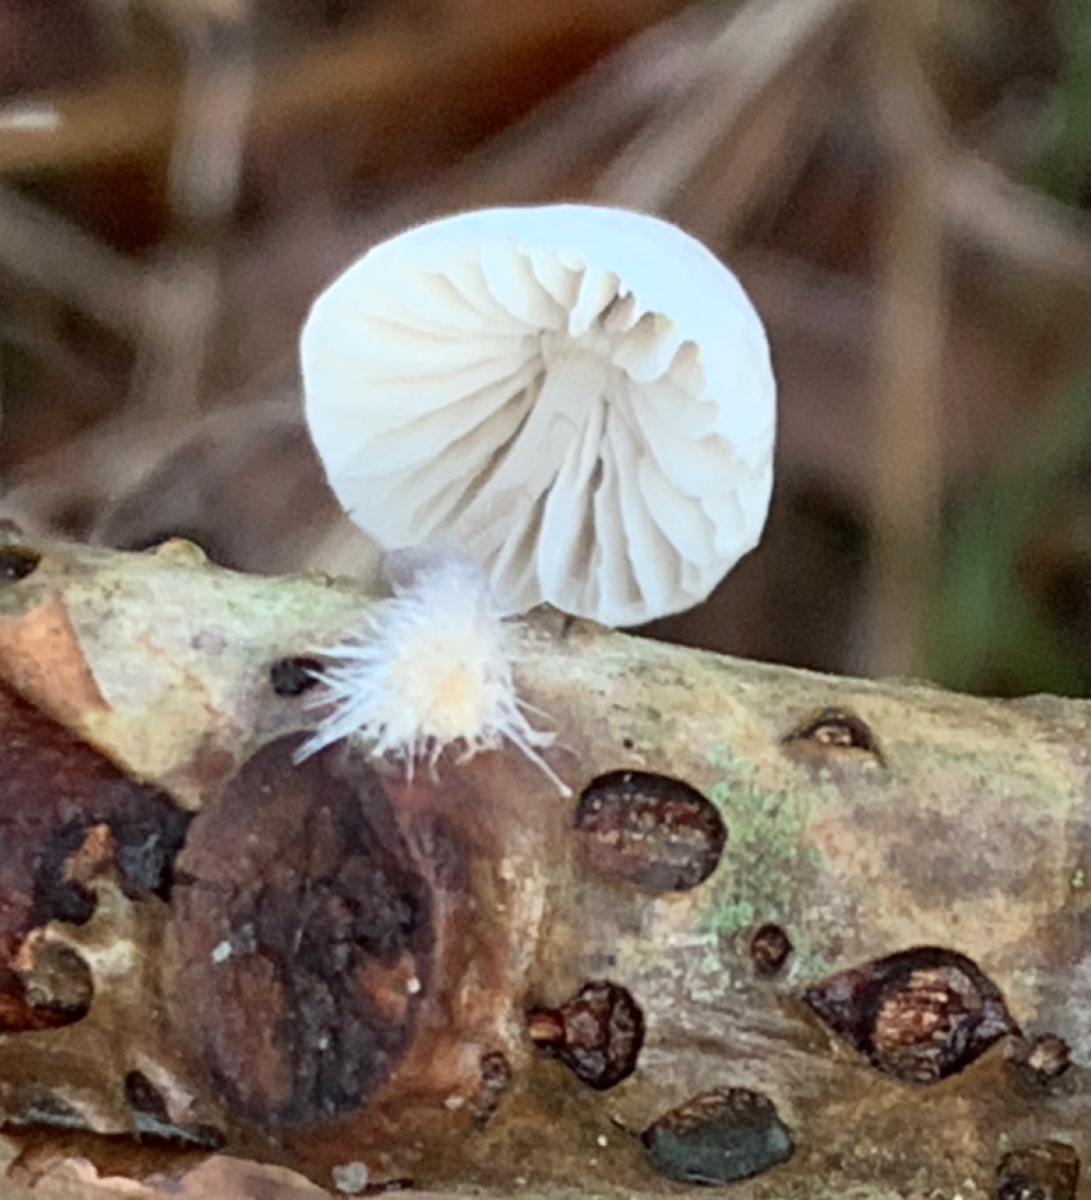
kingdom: Fungi
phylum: Basidiomycota
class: Agaricomycetes
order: Agaricales
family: Mycenaceae
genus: Mycena
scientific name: Mycena arcangeliana
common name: oliven-huesvamp
